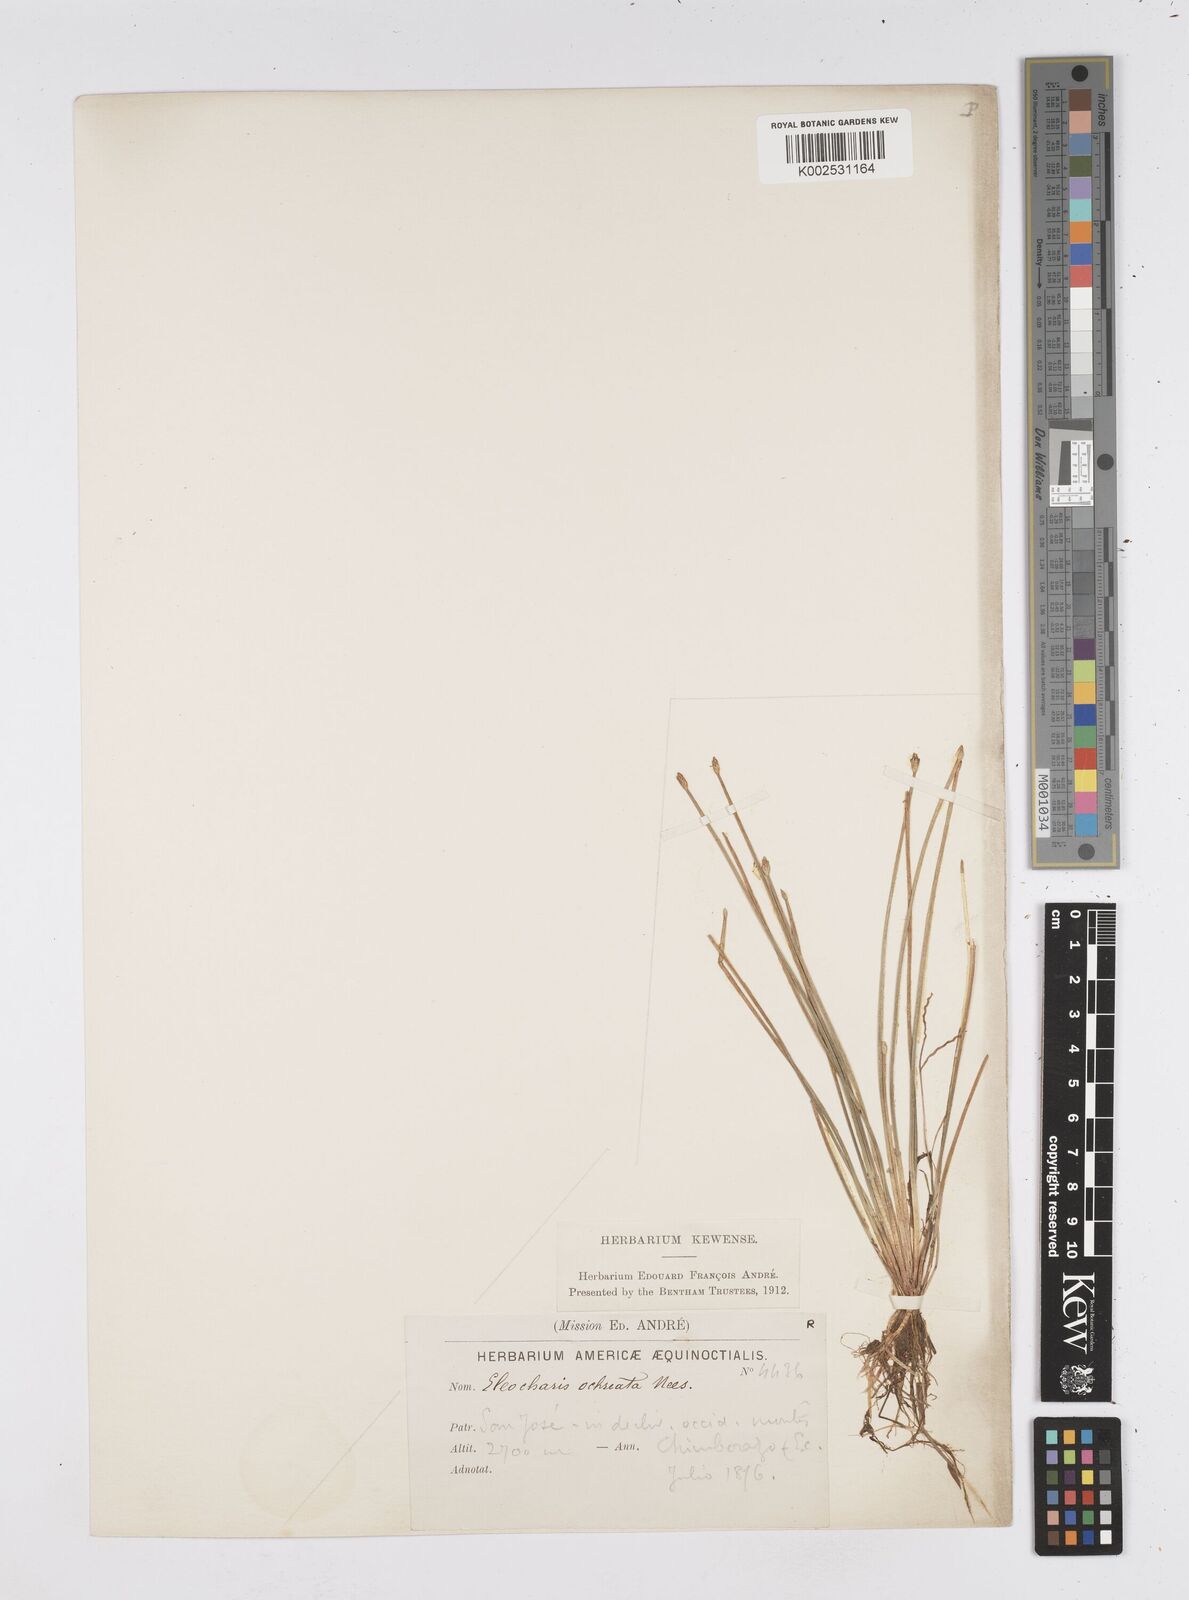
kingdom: Plantae
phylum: Tracheophyta
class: Liliopsida
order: Poales
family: Cyperaceae
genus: Eleocharis
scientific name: Eleocharis flavescens
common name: Yellow spikerush
